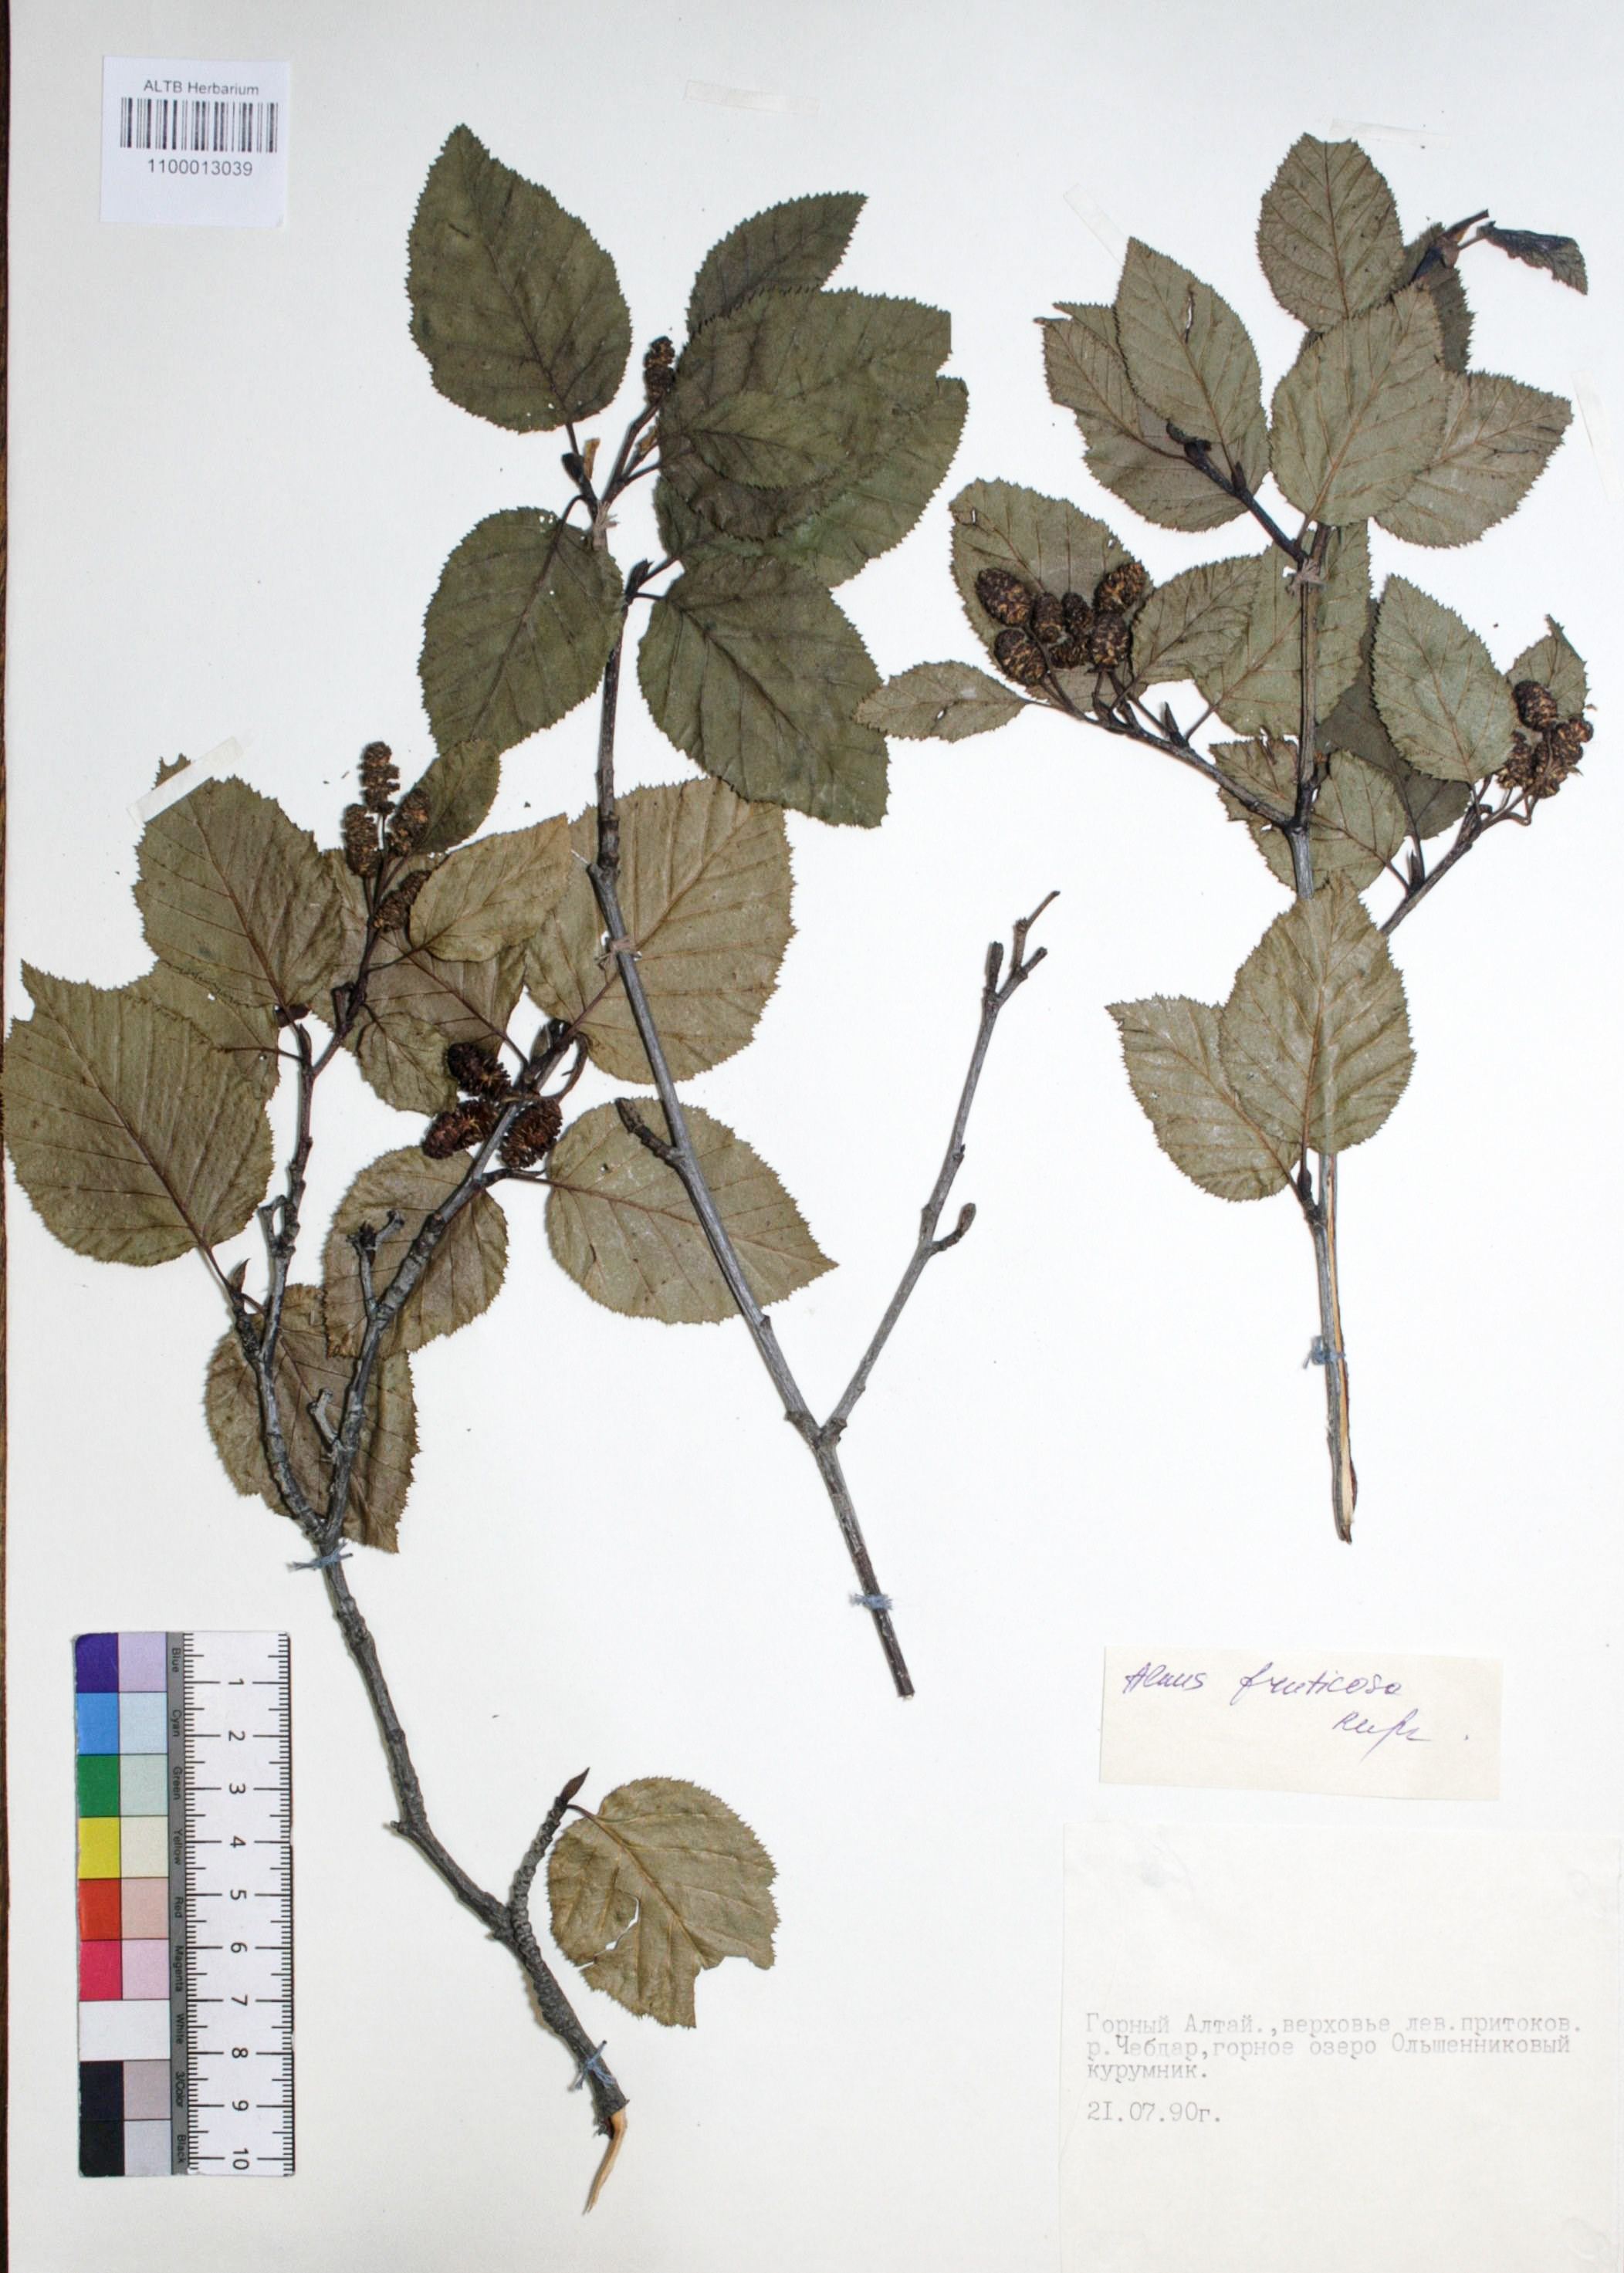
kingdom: Plantae
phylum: Tracheophyta
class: Magnoliopsida
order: Fagales
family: Betulaceae
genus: Alnus
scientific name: Alnus alnobetula
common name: Green alder
